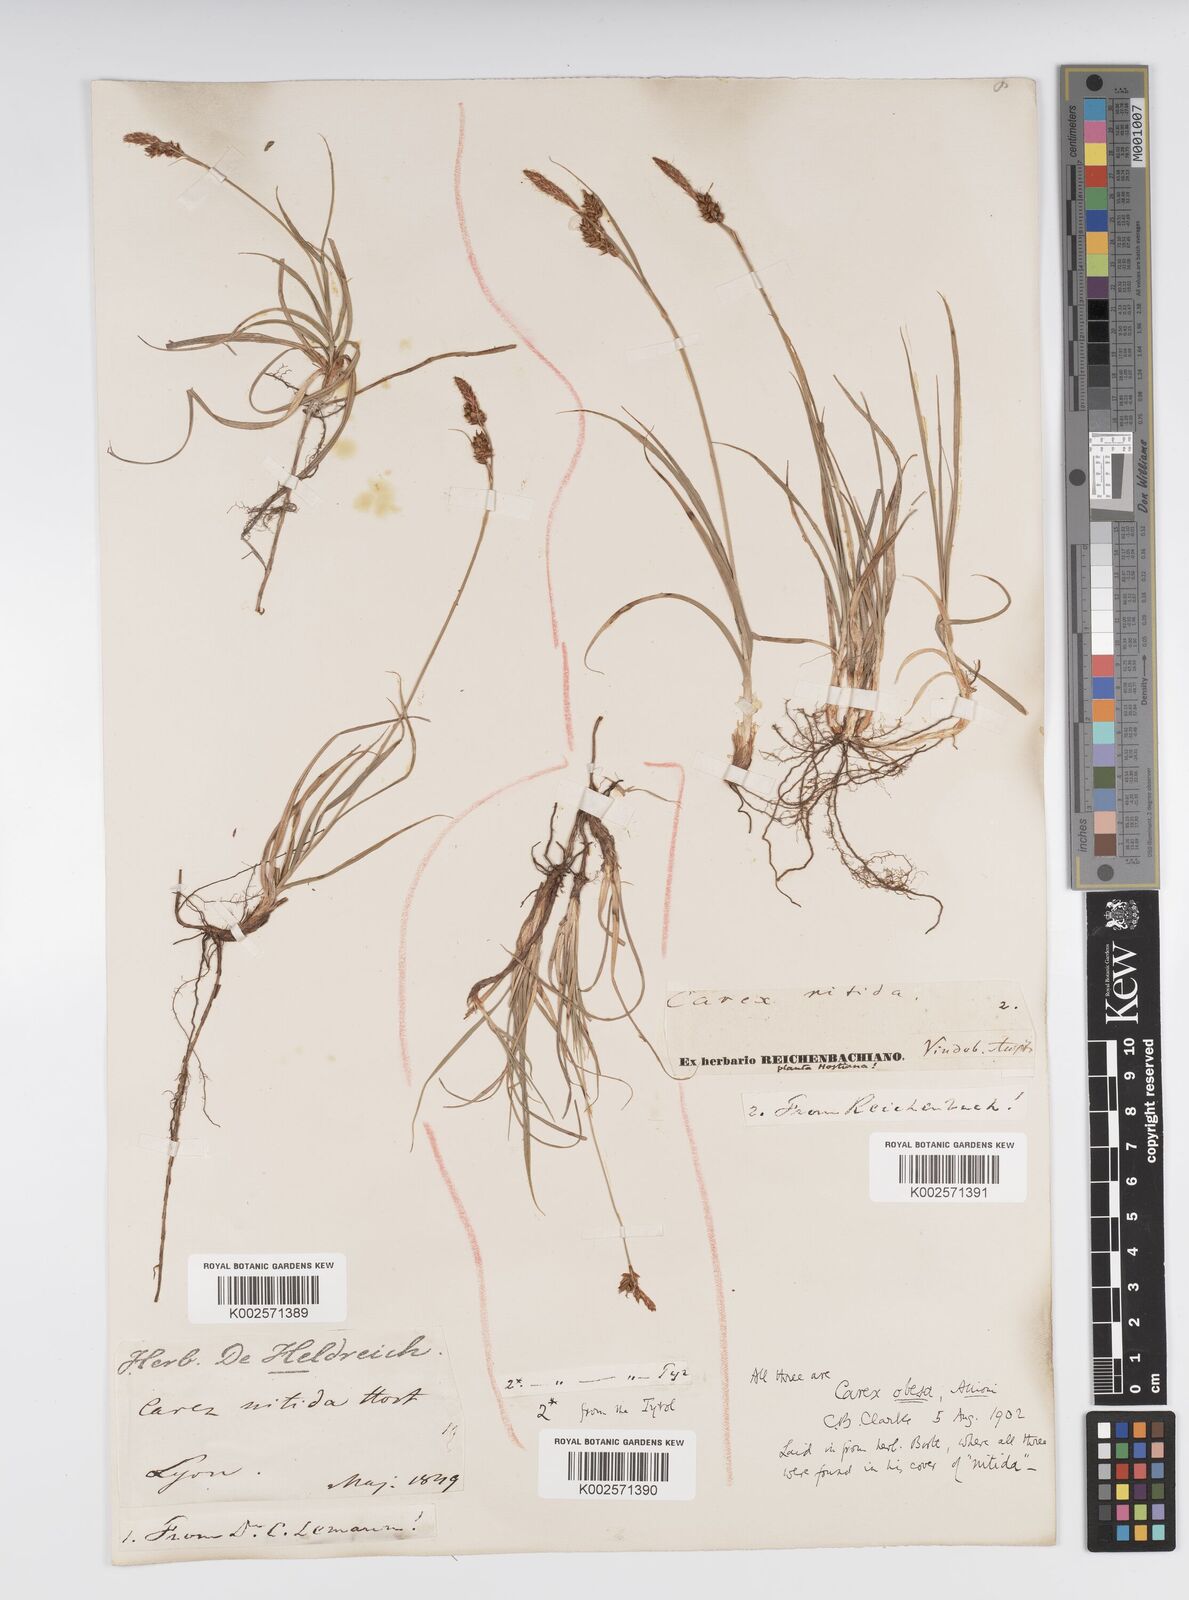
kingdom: Plantae
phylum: Tracheophyta
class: Liliopsida
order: Poales
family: Cyperaceae
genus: Carex
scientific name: Carex liparocarpos
